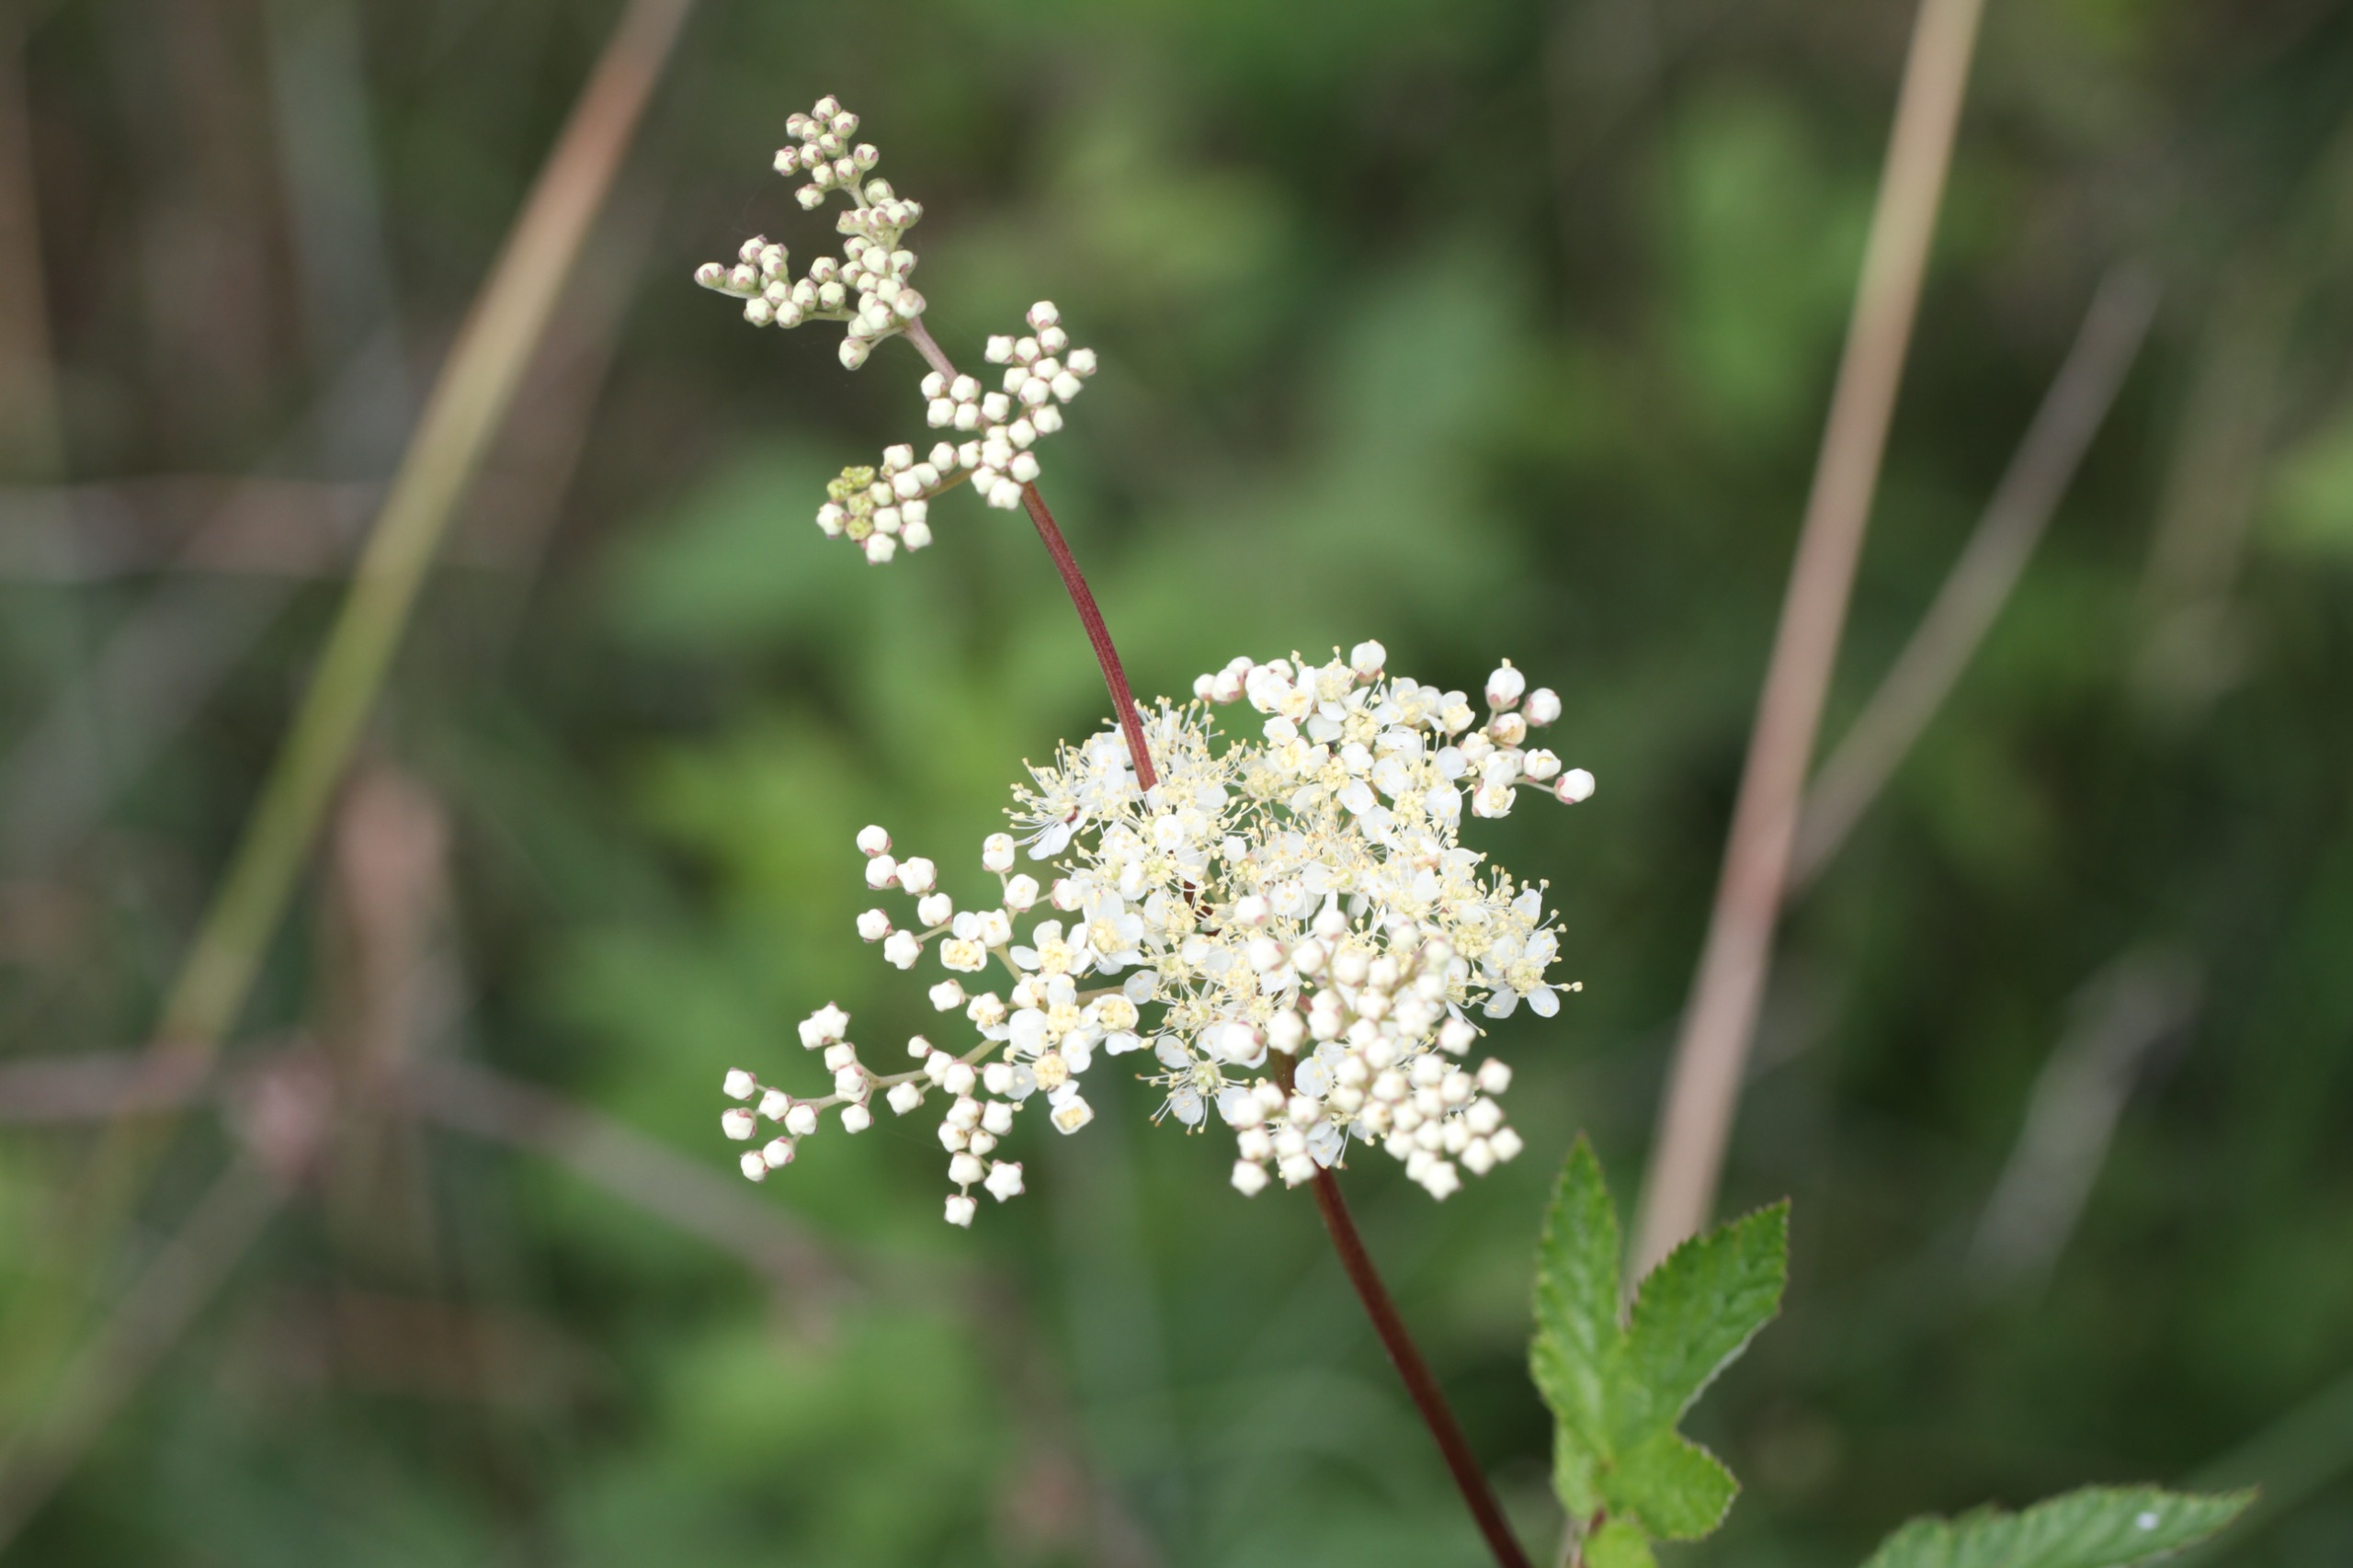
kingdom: Plantae
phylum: Tracheophyta
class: Magnoliopsida
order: Rosales
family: Rosaceae
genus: Filipendula
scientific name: Filipendula ulmaria
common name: Almindelig mjødurt
